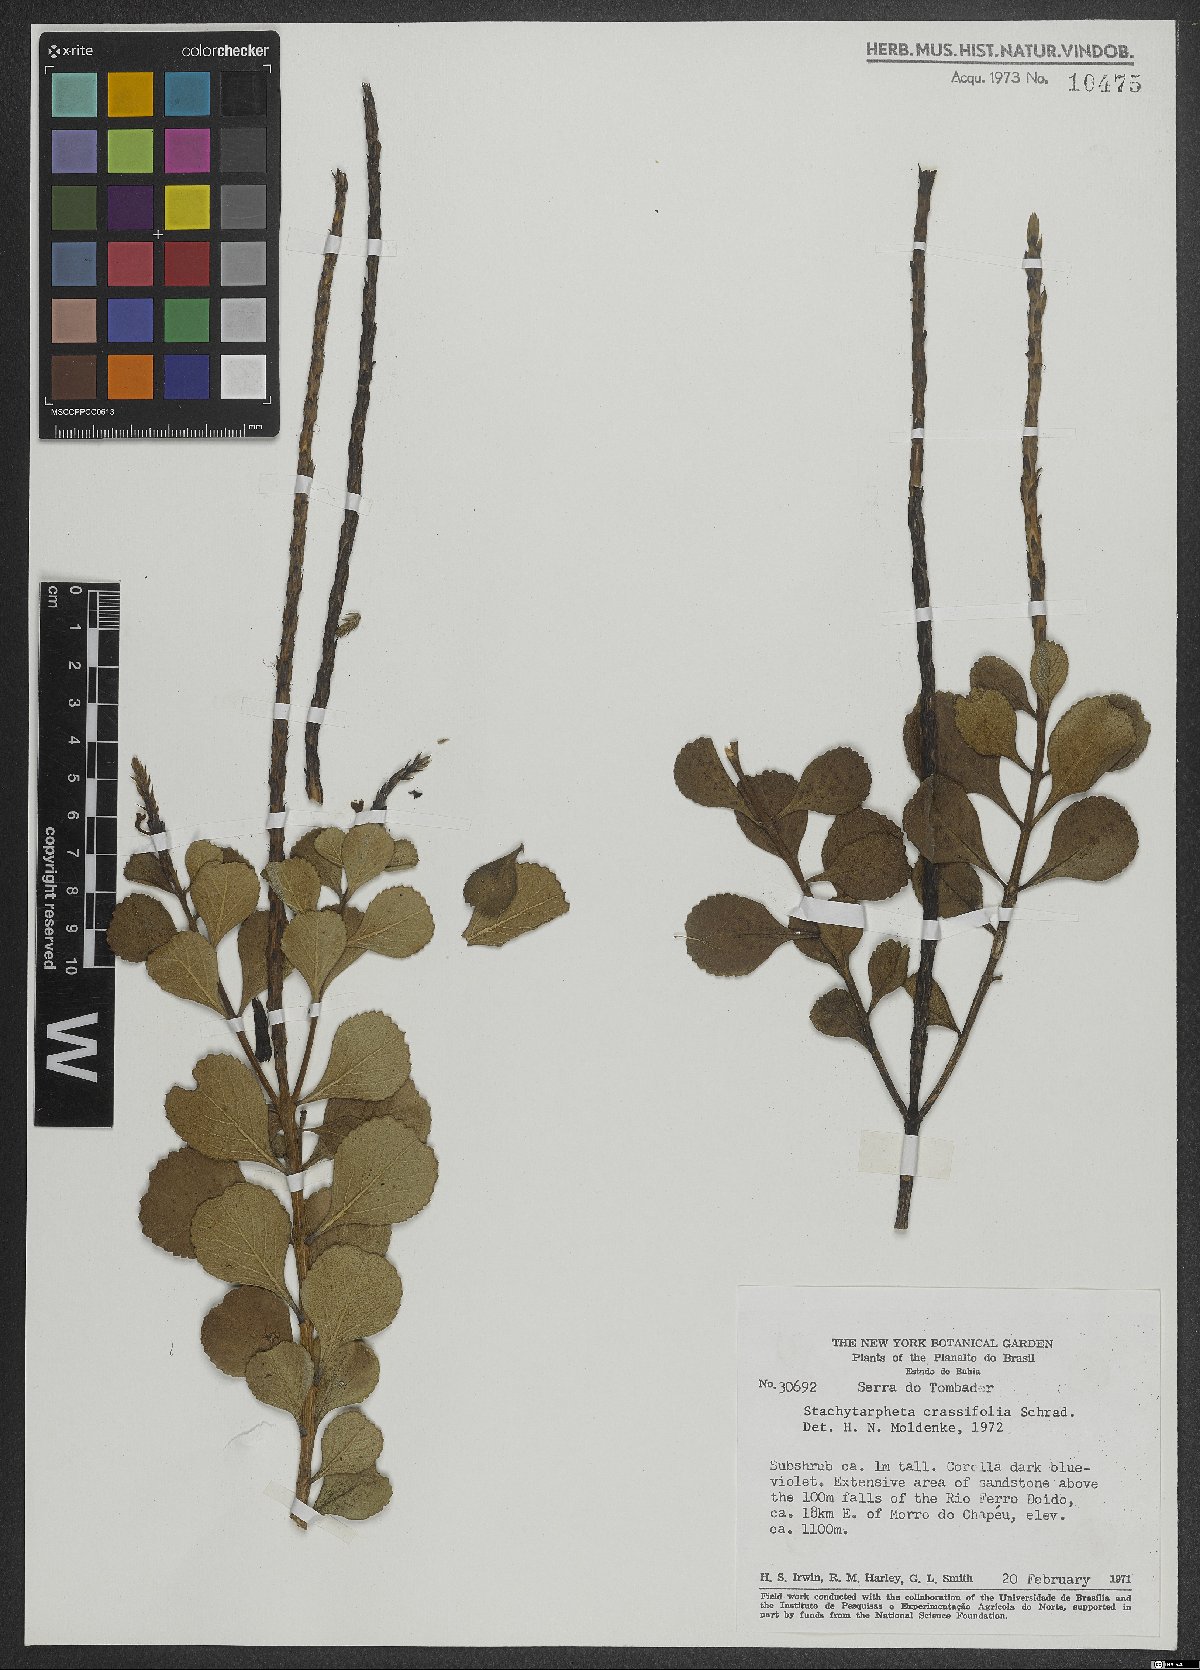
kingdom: Plantae
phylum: Tracheophyta
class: Magnoliopsida
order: Lamiales
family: Verbenaceae
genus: Stachytarpheta
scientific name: Stachytarpheta crassifolia
